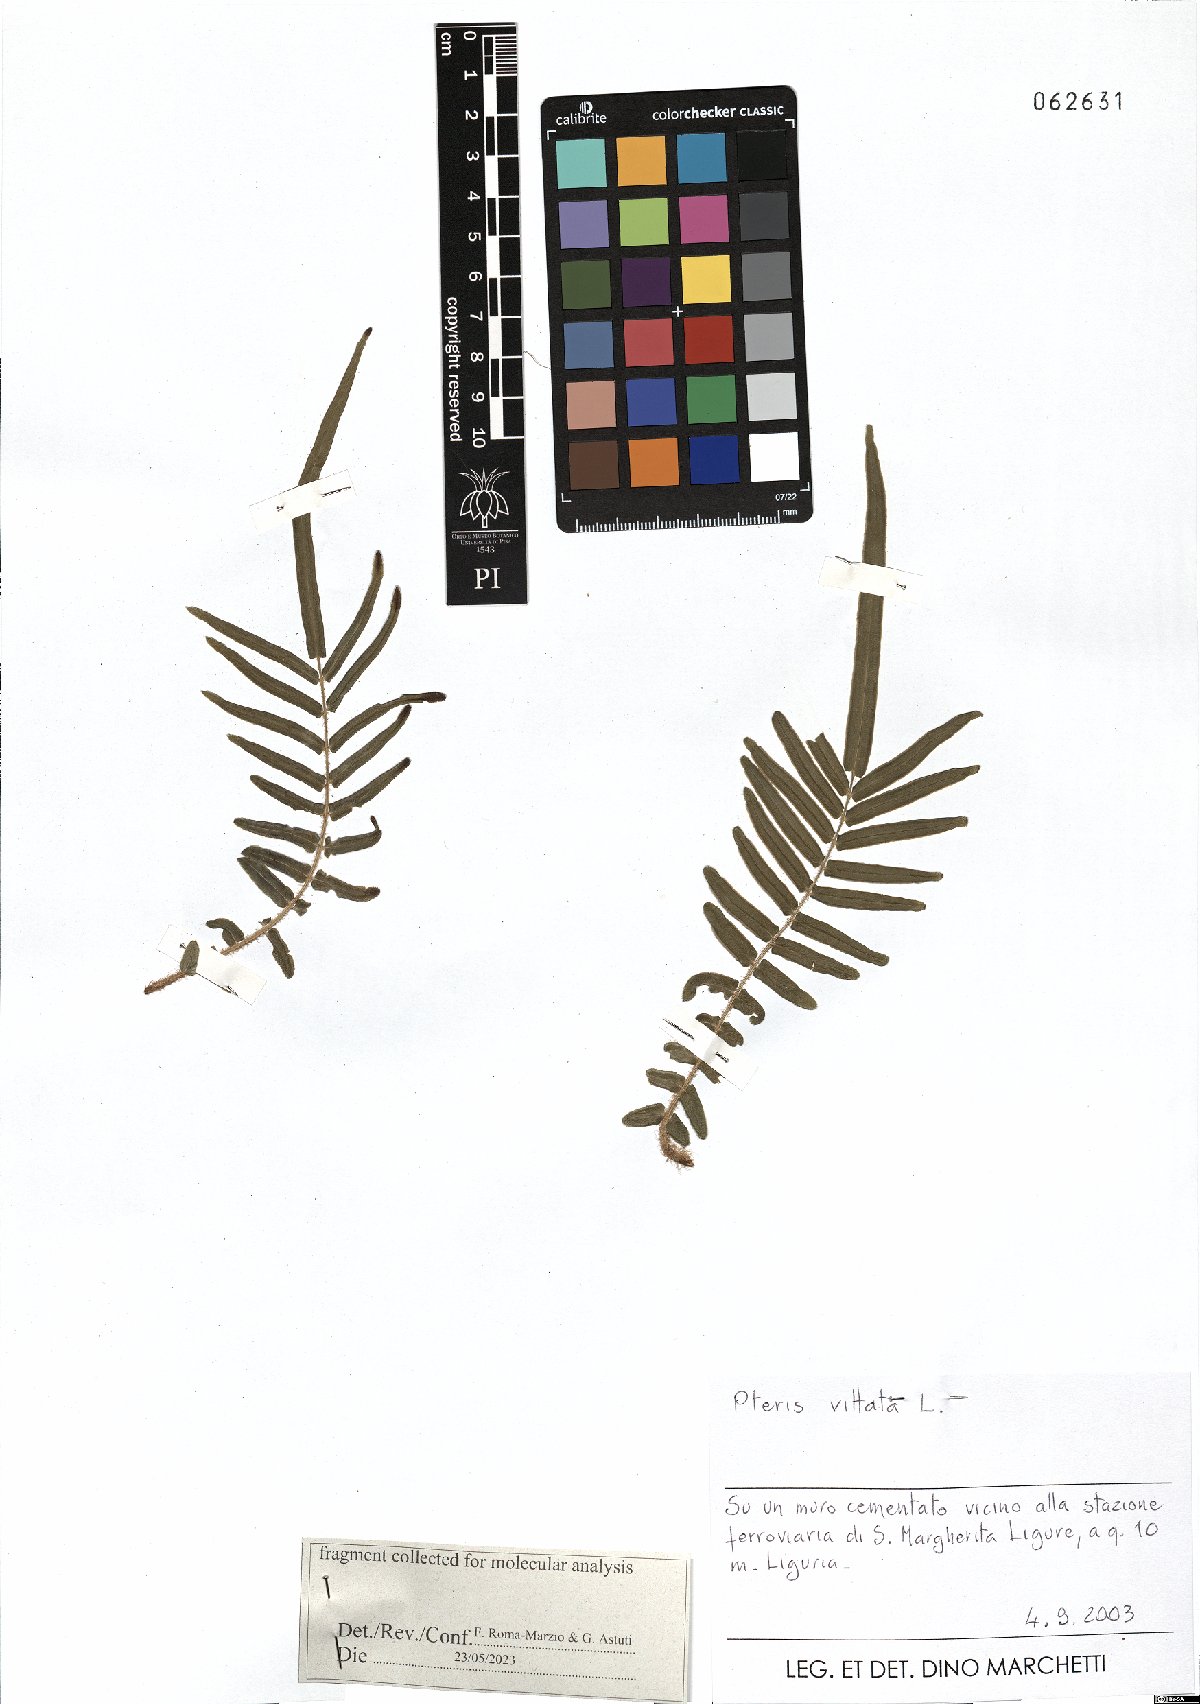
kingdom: Plantae
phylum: Tracheophyta
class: Polypodiopsida
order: Polypodiales
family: Pteridaceae
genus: Pteris
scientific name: Pteris vittata
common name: Ladder brake
